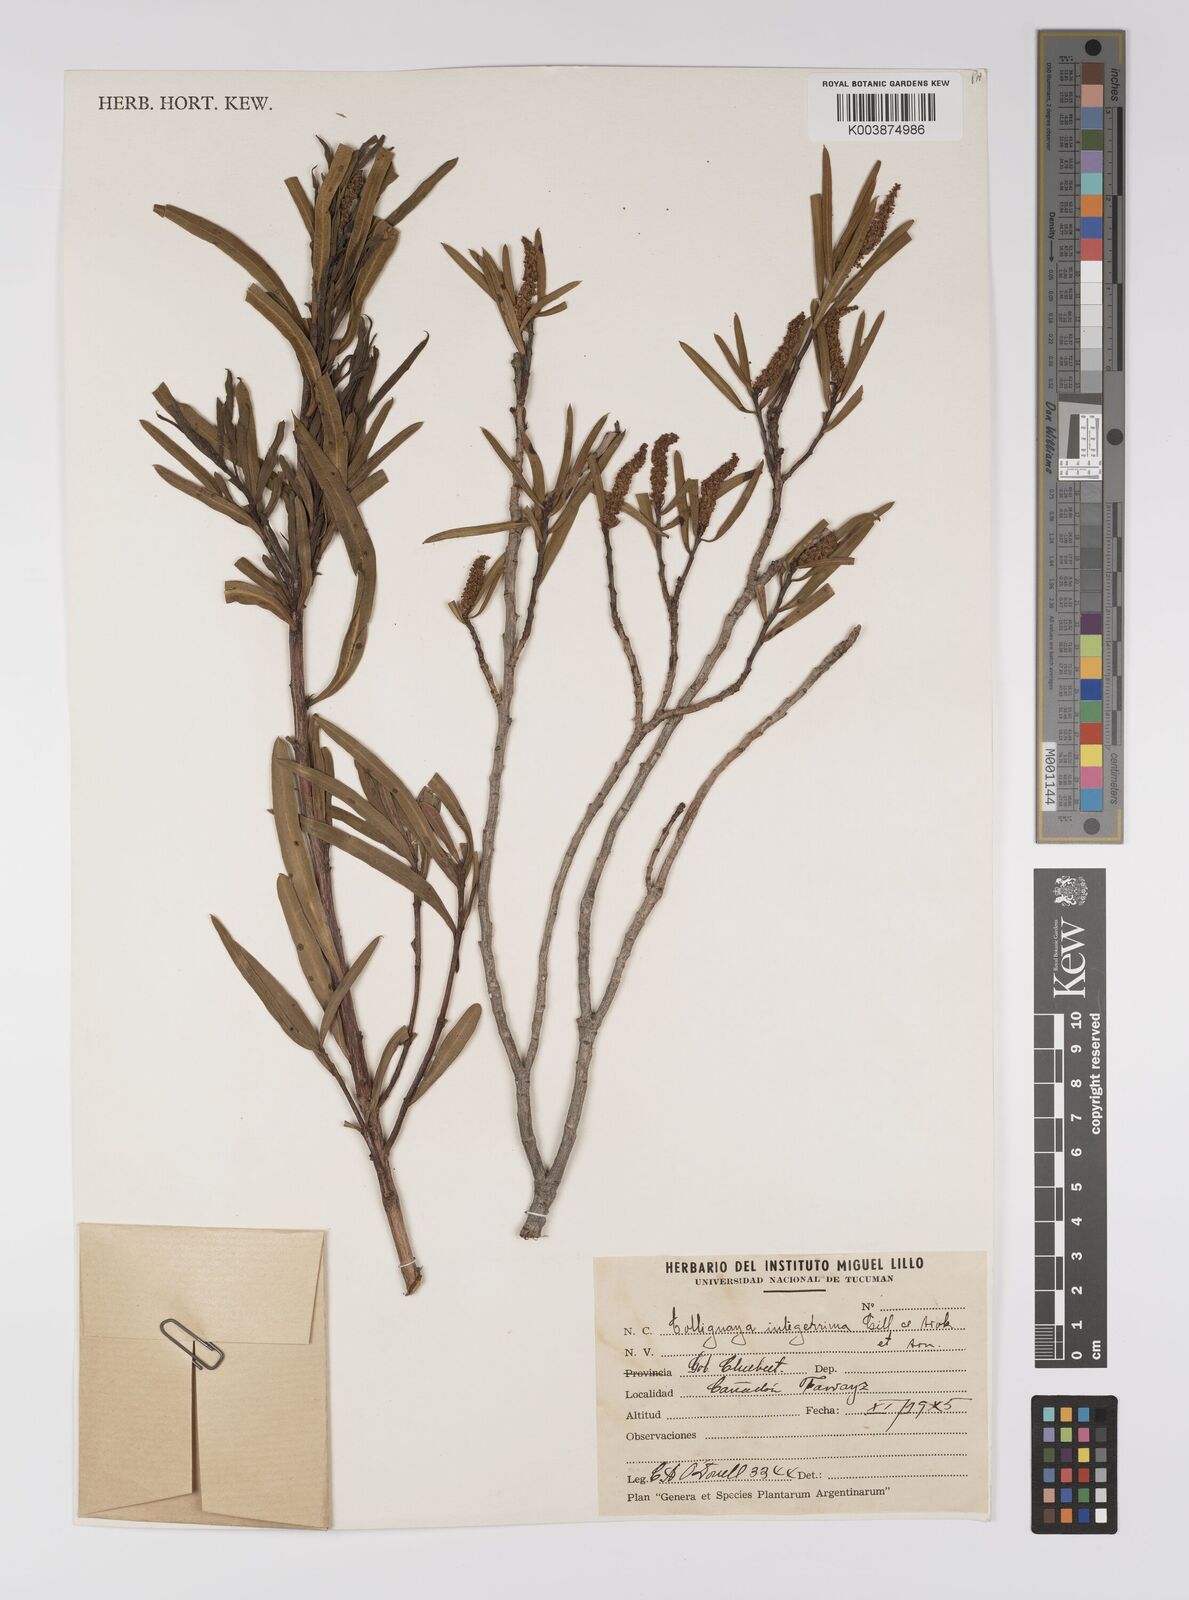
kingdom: Plantae
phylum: Tracheophyta
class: Magnoliopsida
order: Malpighiales
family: Euphorbiaceae
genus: Colliguaja
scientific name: Colliguaja integerrima
